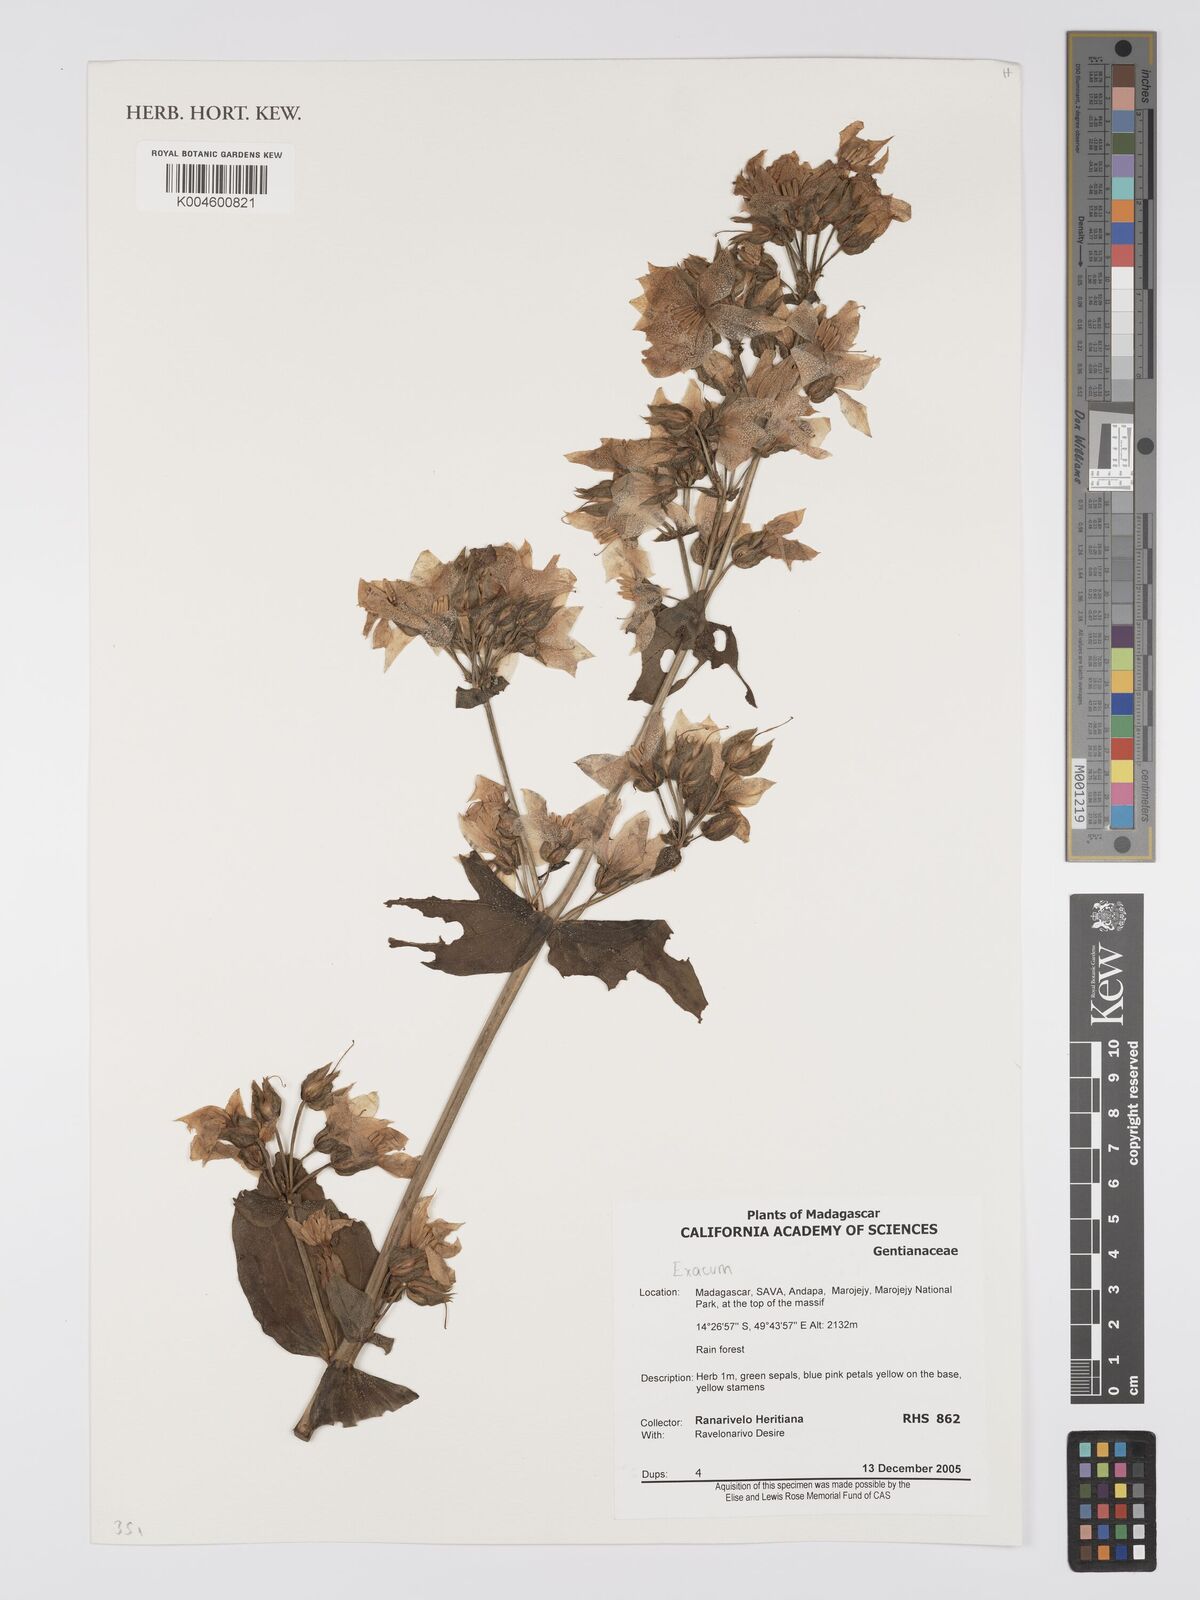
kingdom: Plantae
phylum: Tracheophyta
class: Magnoliopsida
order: Gentianales
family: Gentianaceae
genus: Exacum
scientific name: Exacum divaricatum
